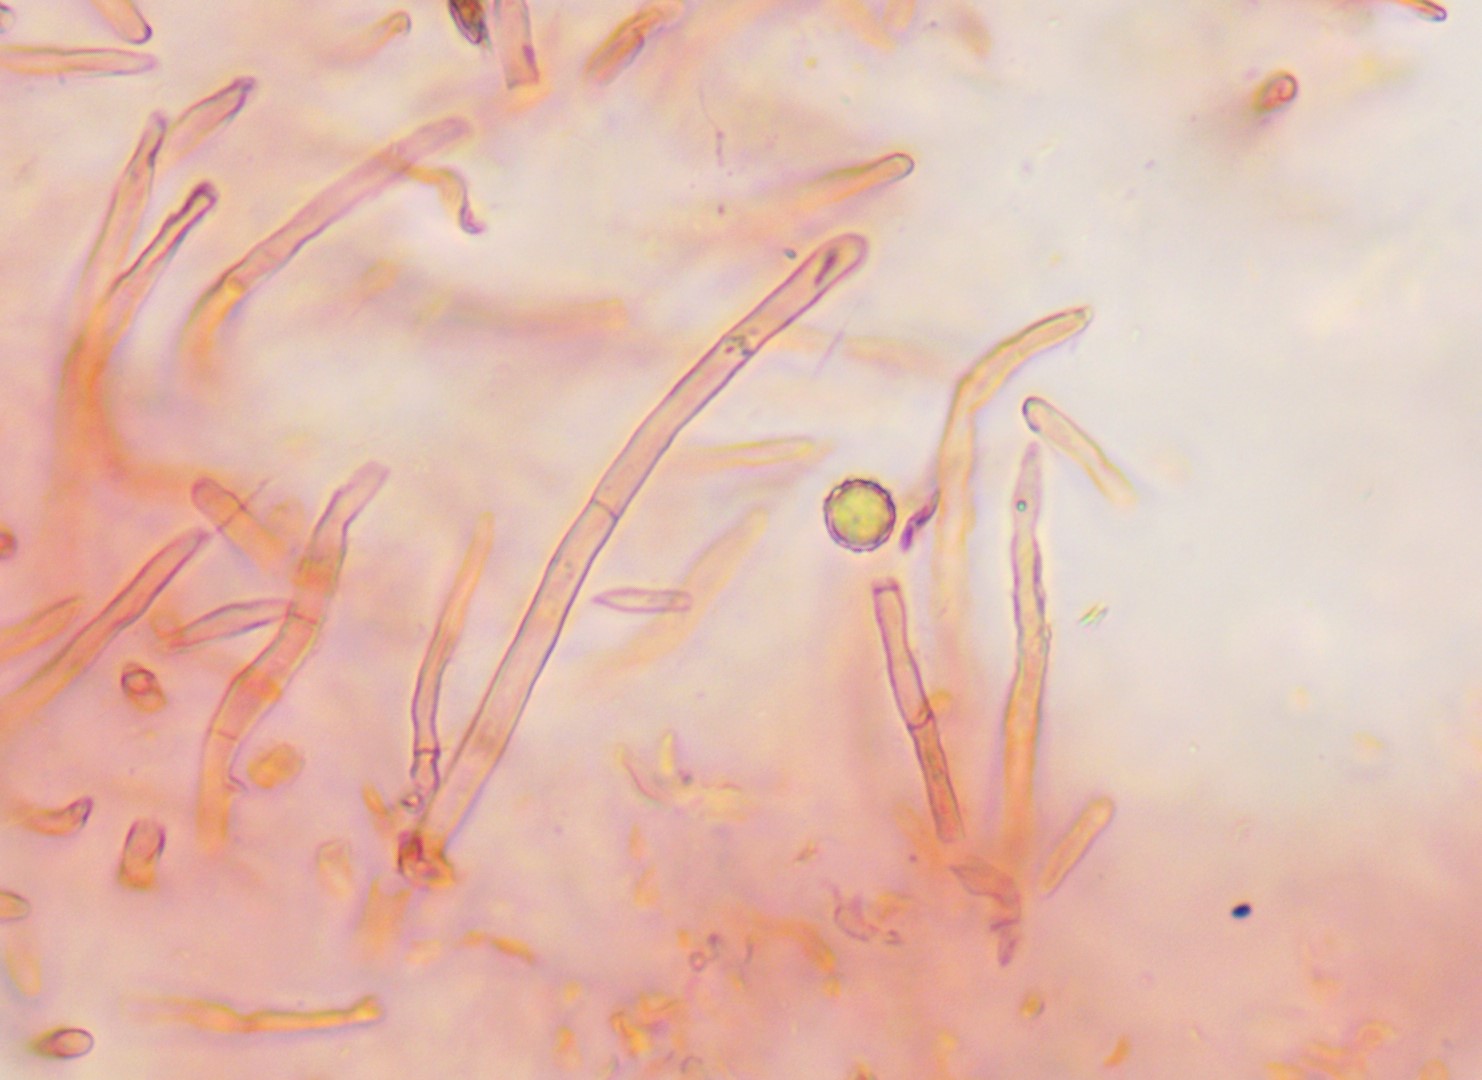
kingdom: Fungi
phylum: Basidiomycota
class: Agaricomycetes
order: Russulales
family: Russulaceae
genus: Russula
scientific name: Russula favrei
